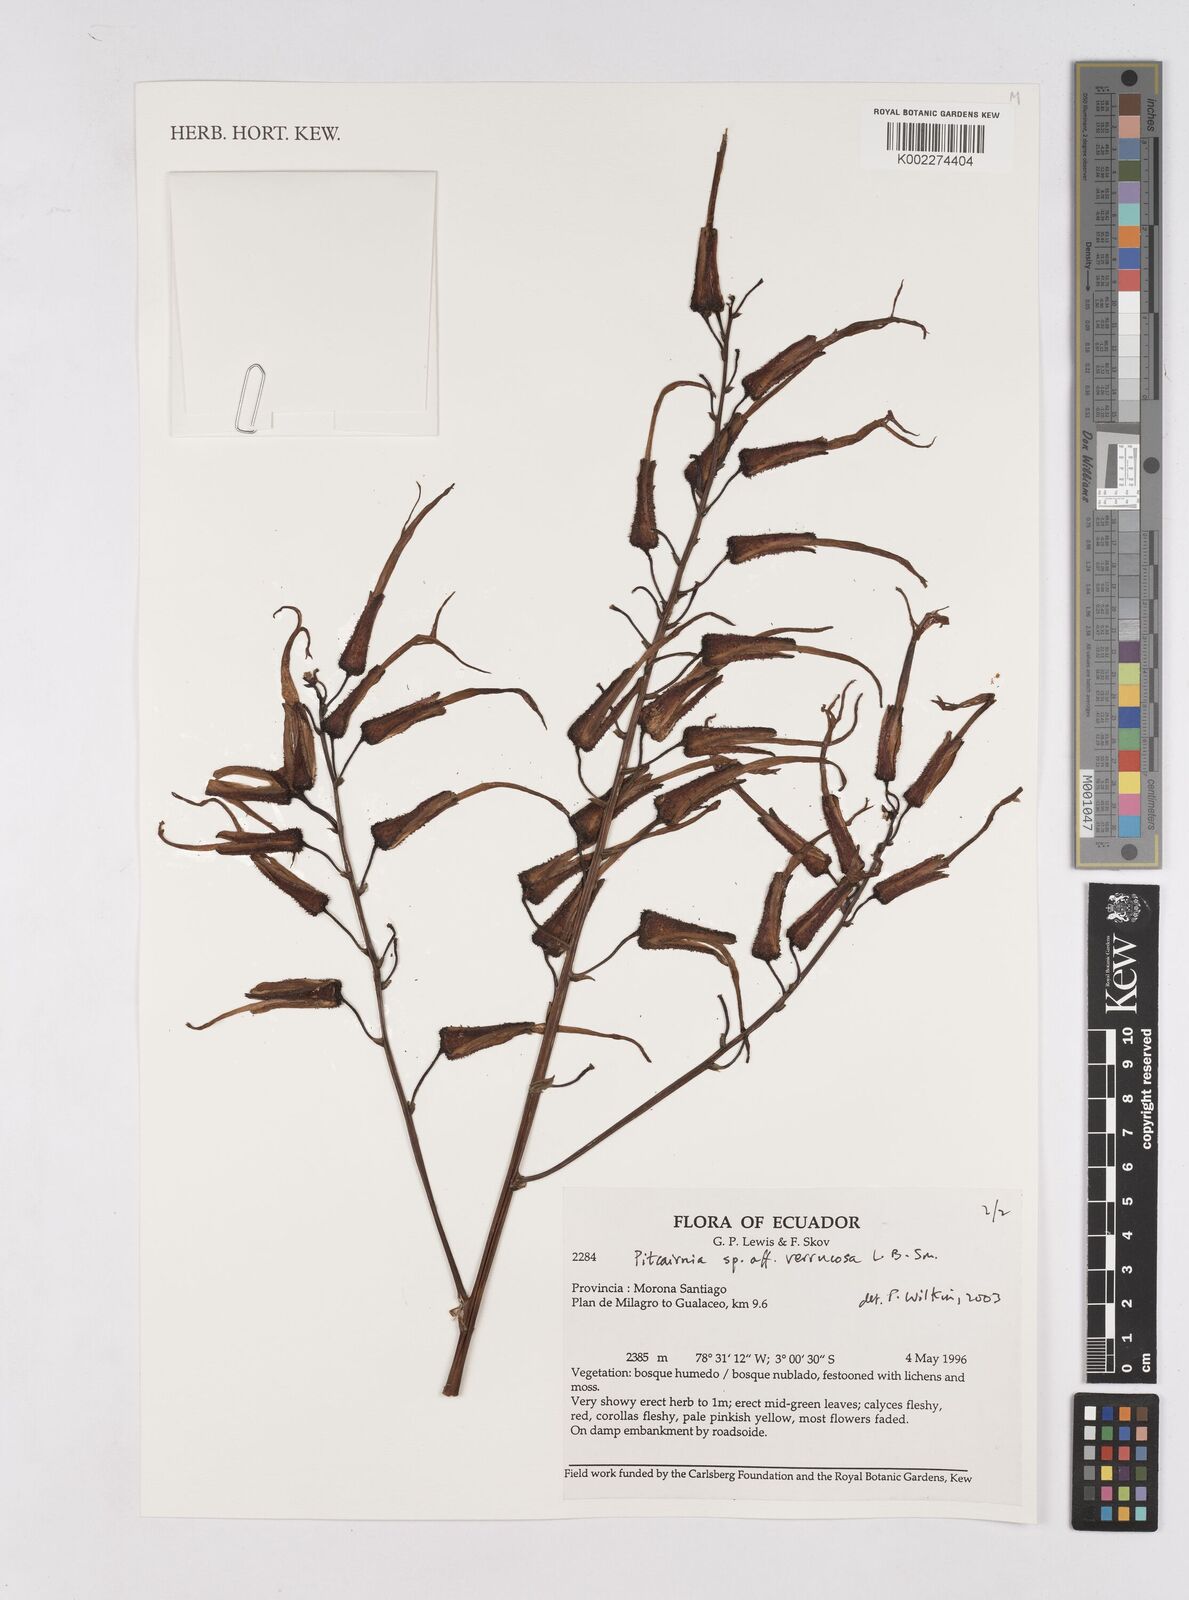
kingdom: Plantae
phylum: Tracheophyta
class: Liliopsida
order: Poales
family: Bromeliaceae
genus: Pitcairnia
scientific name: Pitcairnia verrucosa
